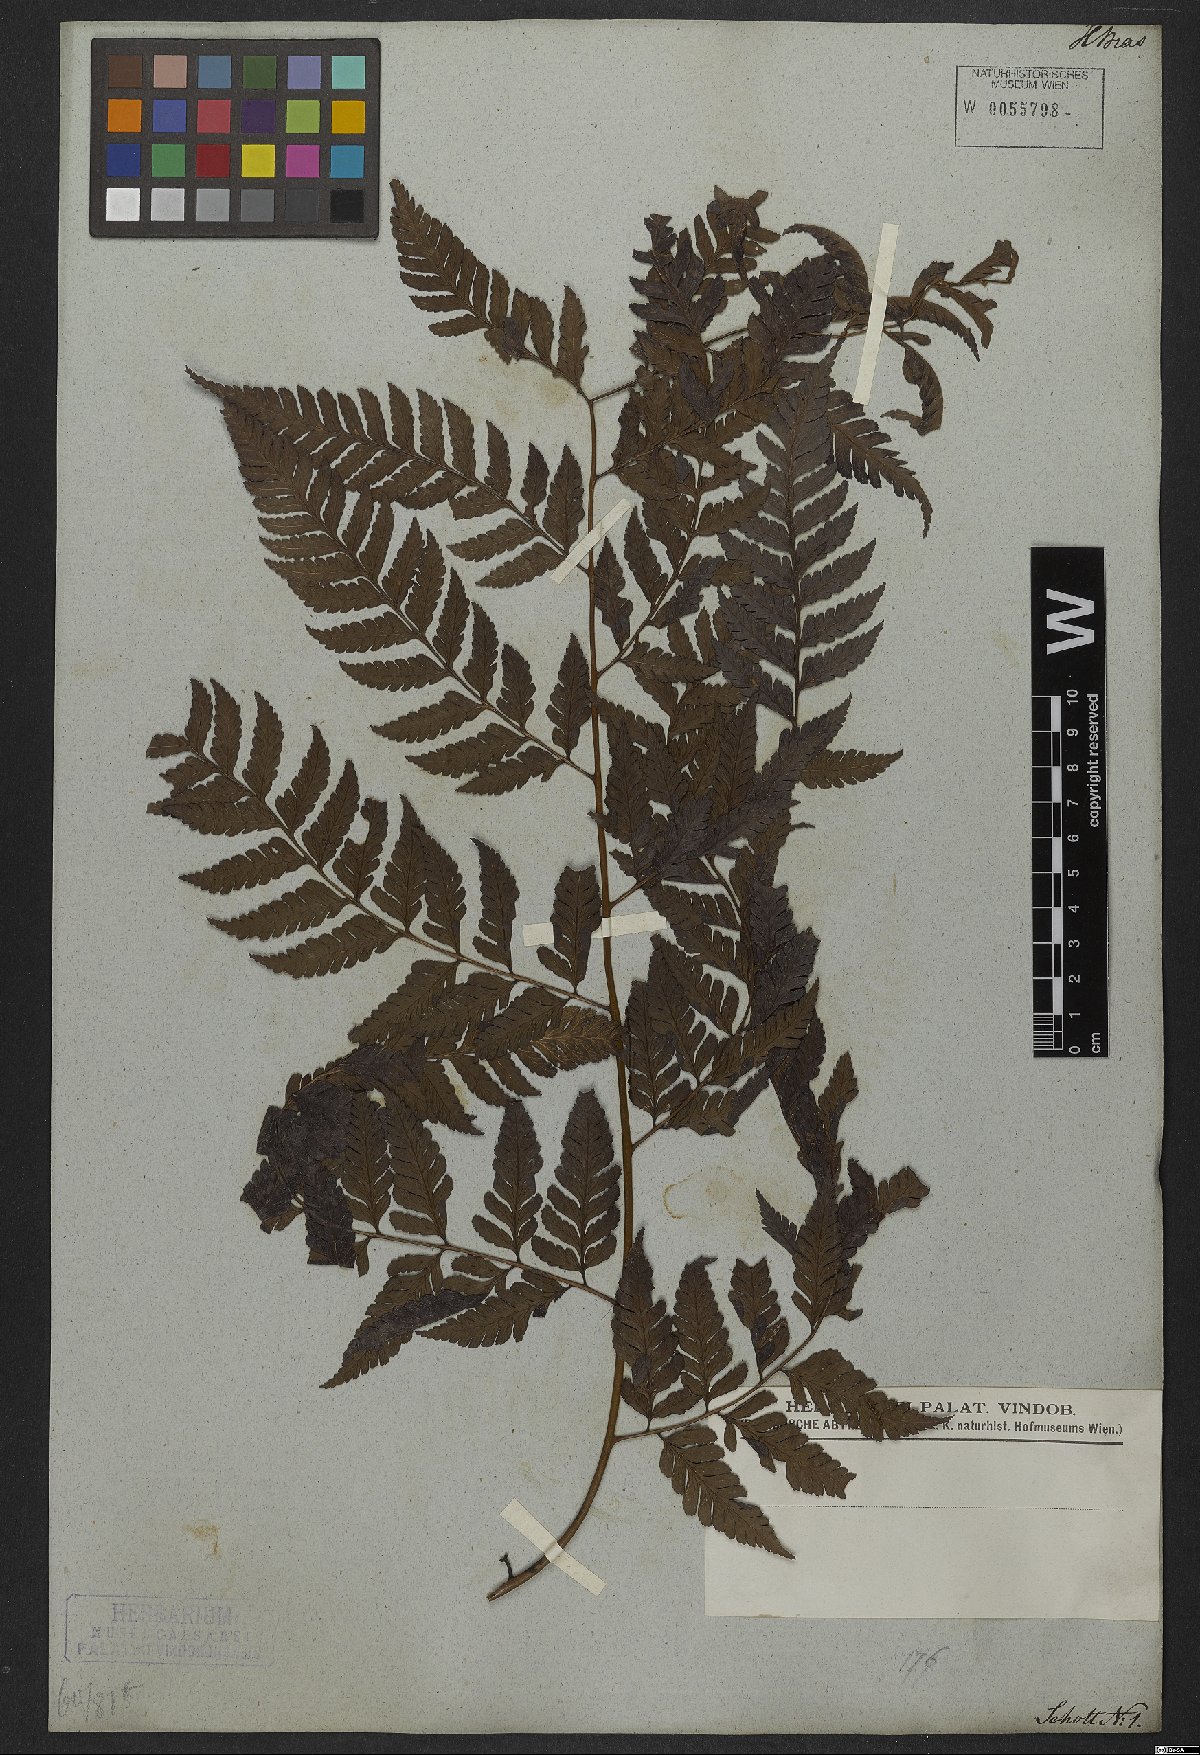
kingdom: Plantae
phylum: Tracheophyta
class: Polypodiopsida
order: Polypodiales
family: Dryopteridaceae
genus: Polybotrya
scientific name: Polybotrya osmundacea
